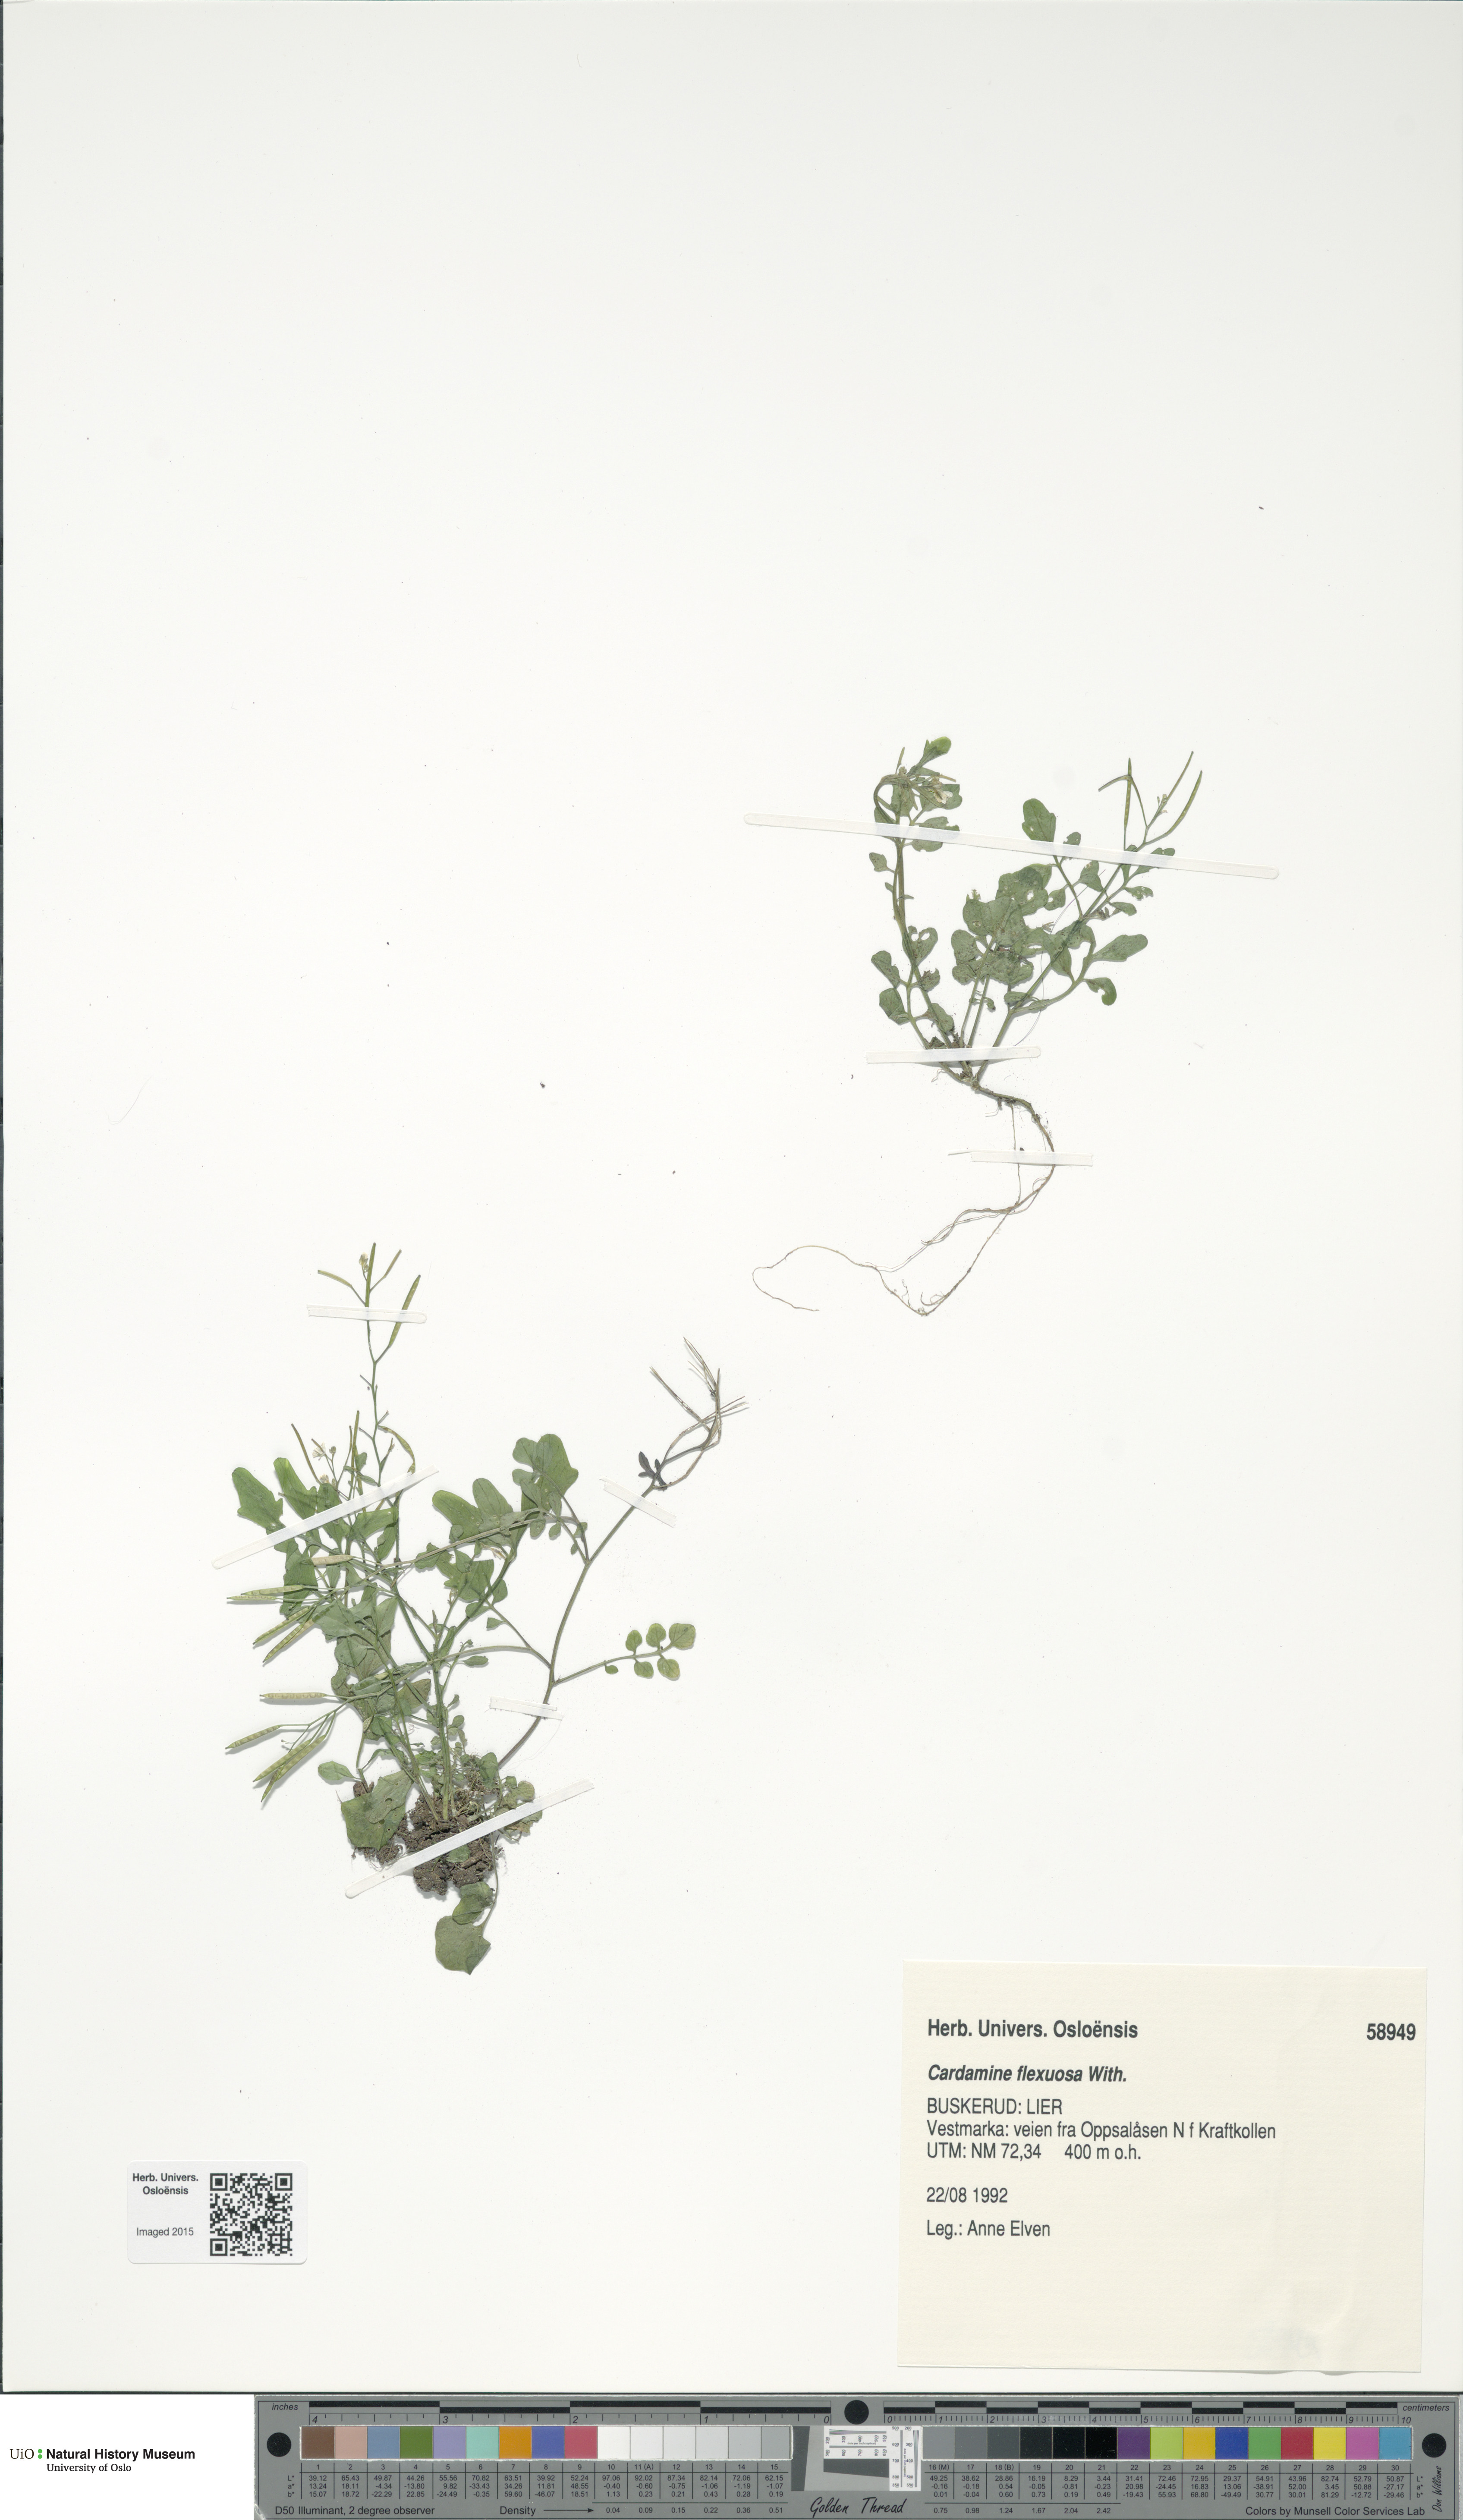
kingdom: Plantae
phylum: Tracheophyta
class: Magnoliopsida
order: Brassicales
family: Brassicaceae
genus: Cardamine
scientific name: Cardamine flexuosa
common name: Woodland bittercress
